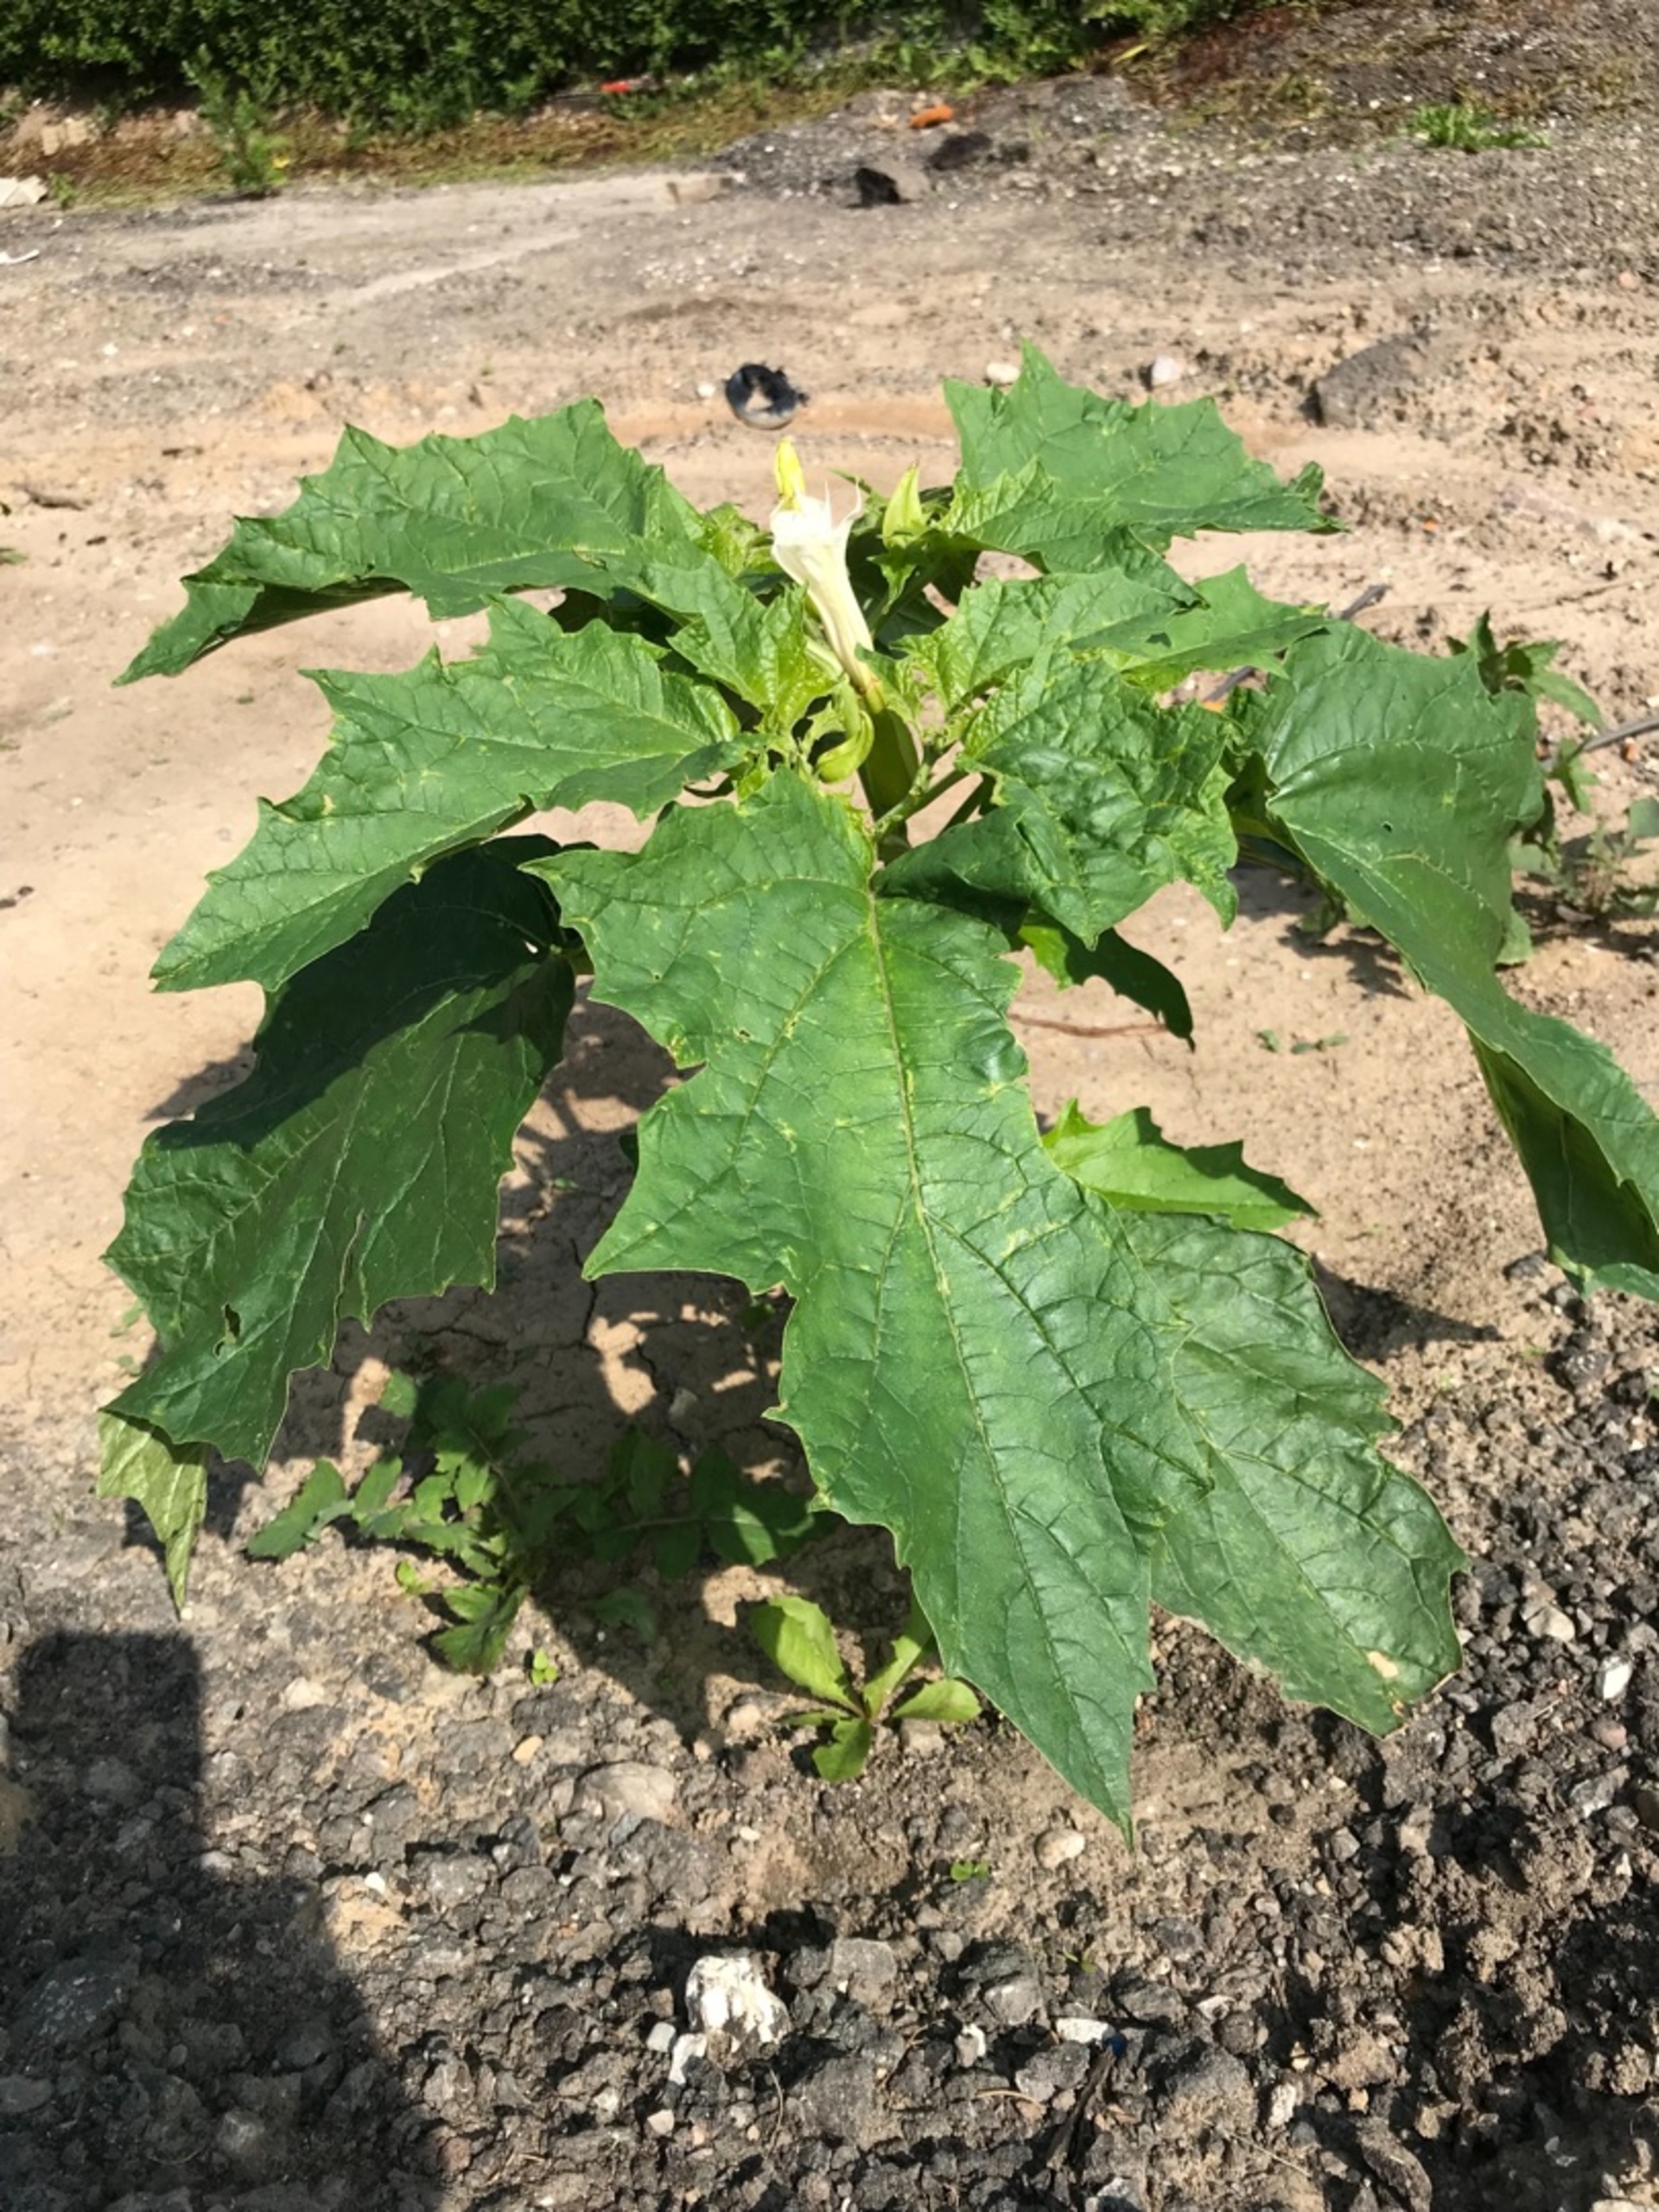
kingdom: Plantae
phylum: Tracheophyta
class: Magnoliopsida
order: Solanales
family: Solanaceae
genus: Datura
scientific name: Datura stramonium
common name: Pigæble
